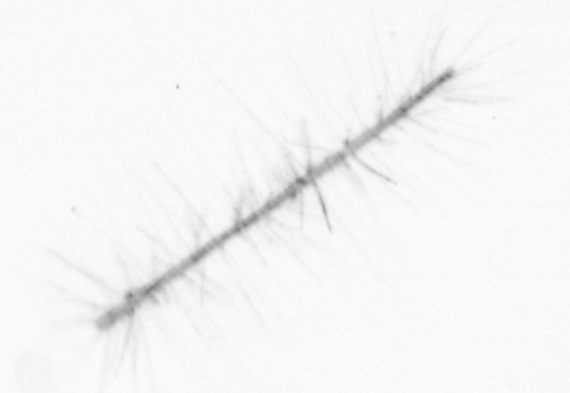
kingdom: Chromista
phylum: Ochrophyta
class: Bacillariophyceae
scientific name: Bacillariophyceae
